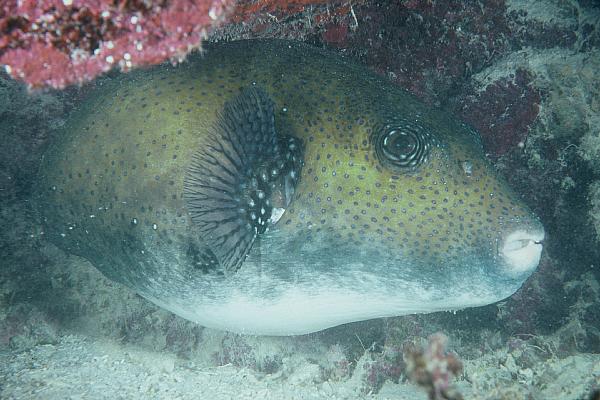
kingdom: Animalia
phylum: Chordata
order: Tetraodontiformes
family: Tetraodontidae
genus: Arothron
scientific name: Arothron caeruleopunctatus
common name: Blue-spotted puffer
